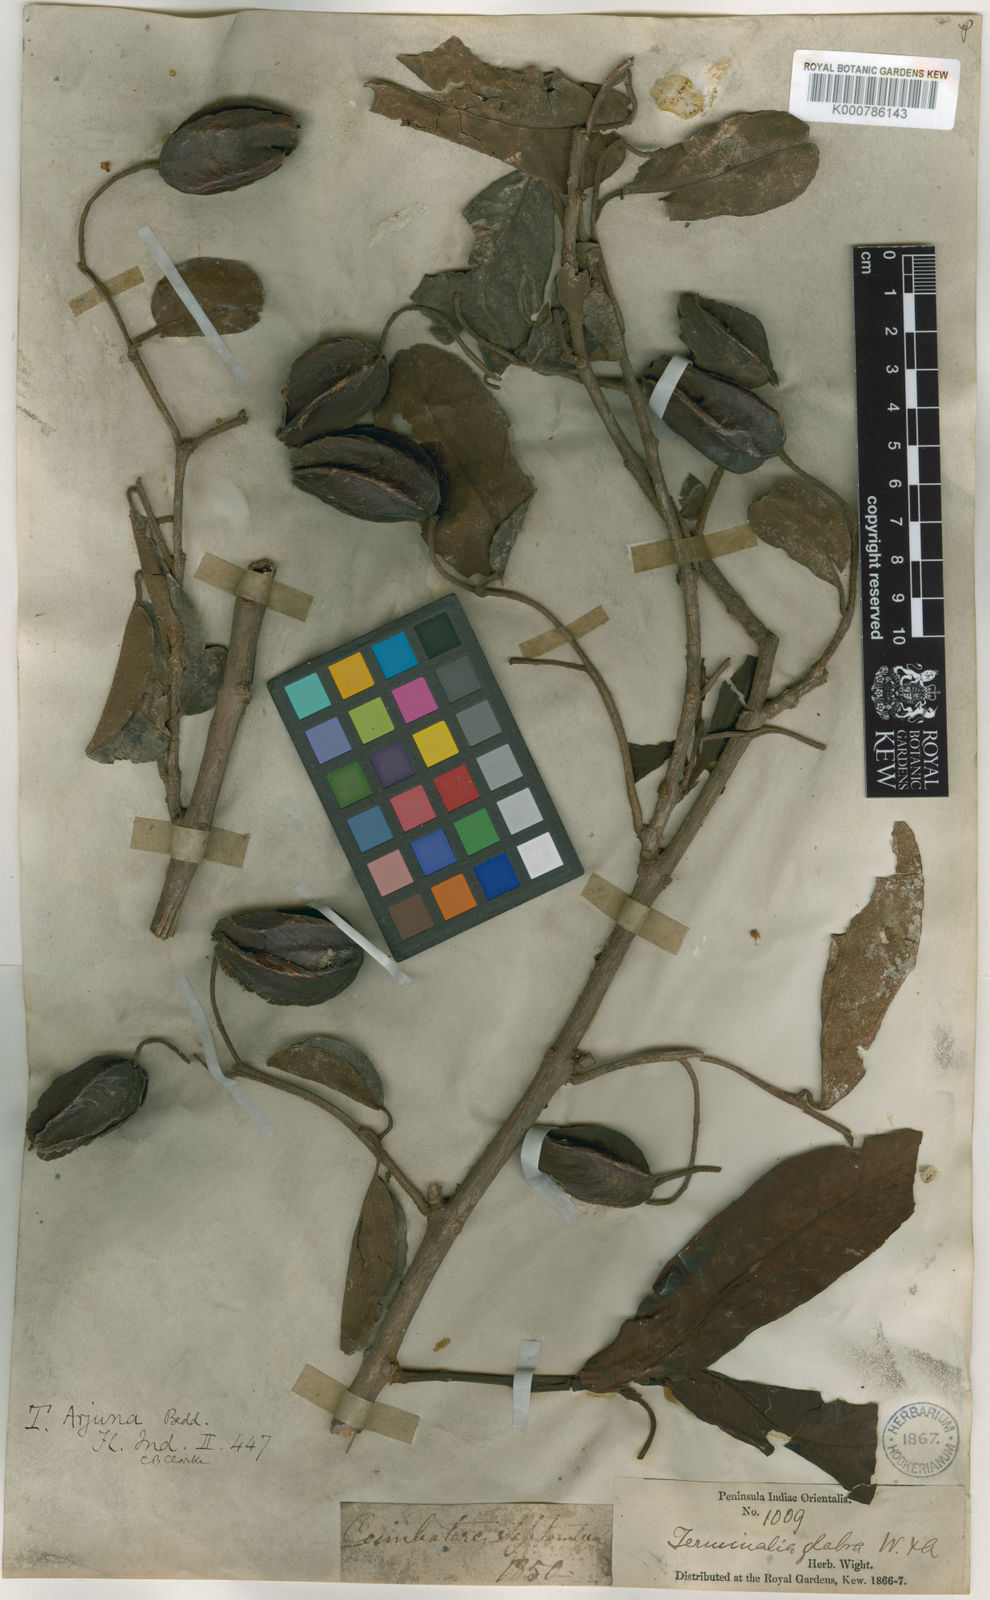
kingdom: Plantae
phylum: Tracheophyta
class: Magnoliopsida
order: Myrtales
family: Combretaceae
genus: Terminalia
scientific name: Terminalia
